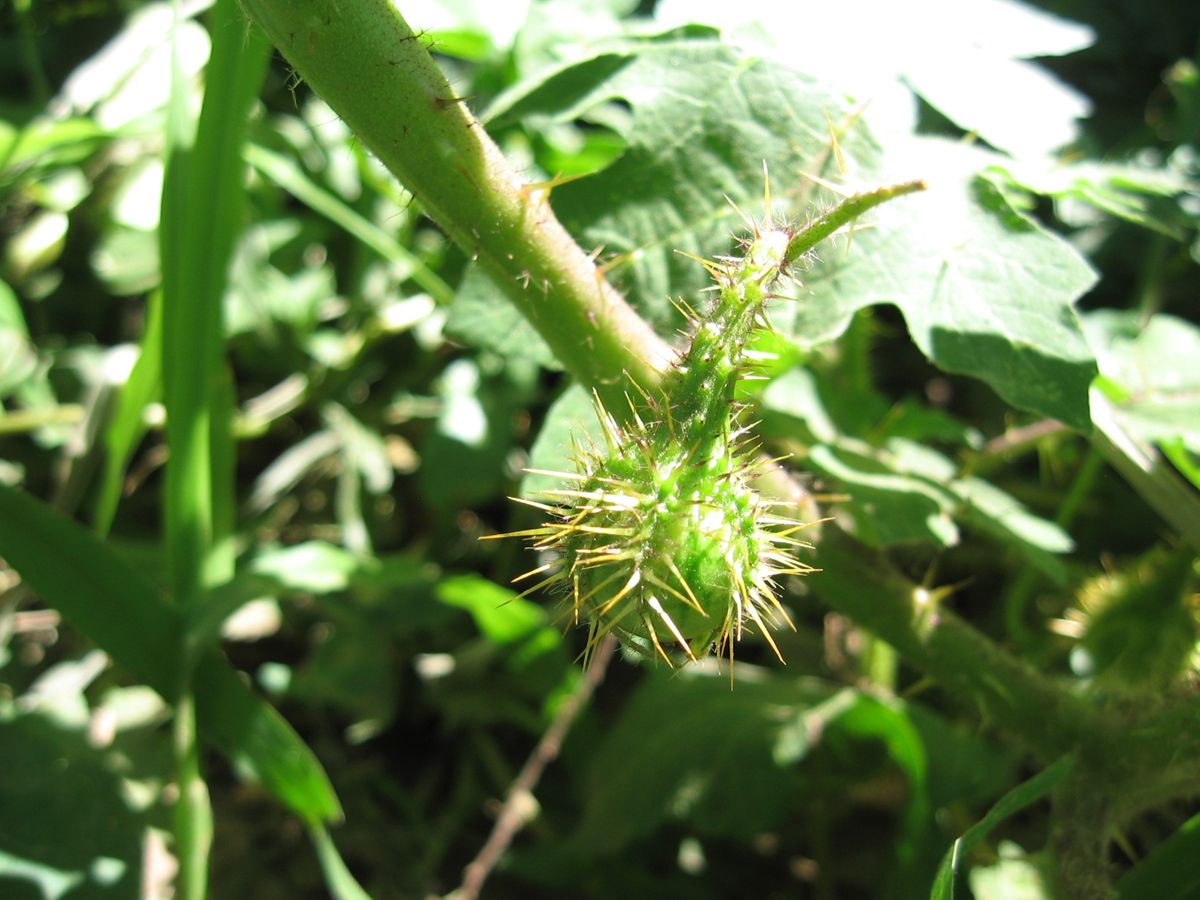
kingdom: Plantae
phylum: Tracheophyta
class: Magnoliopsida
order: Solanales
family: Solanaceae
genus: Solanum
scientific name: Solanum campechiense
